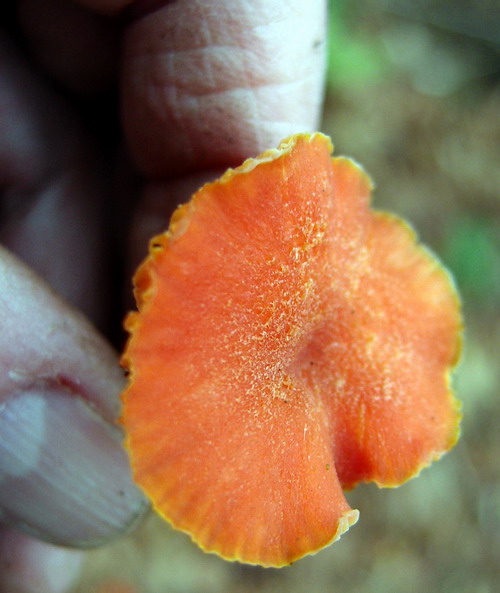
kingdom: Fungi
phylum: Basidiomycota
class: Agaricomycetes
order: Agaricales
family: Hygrophoraceae
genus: Hygrocybe
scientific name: Hygrocybe miniata
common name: mønje-vokshat
